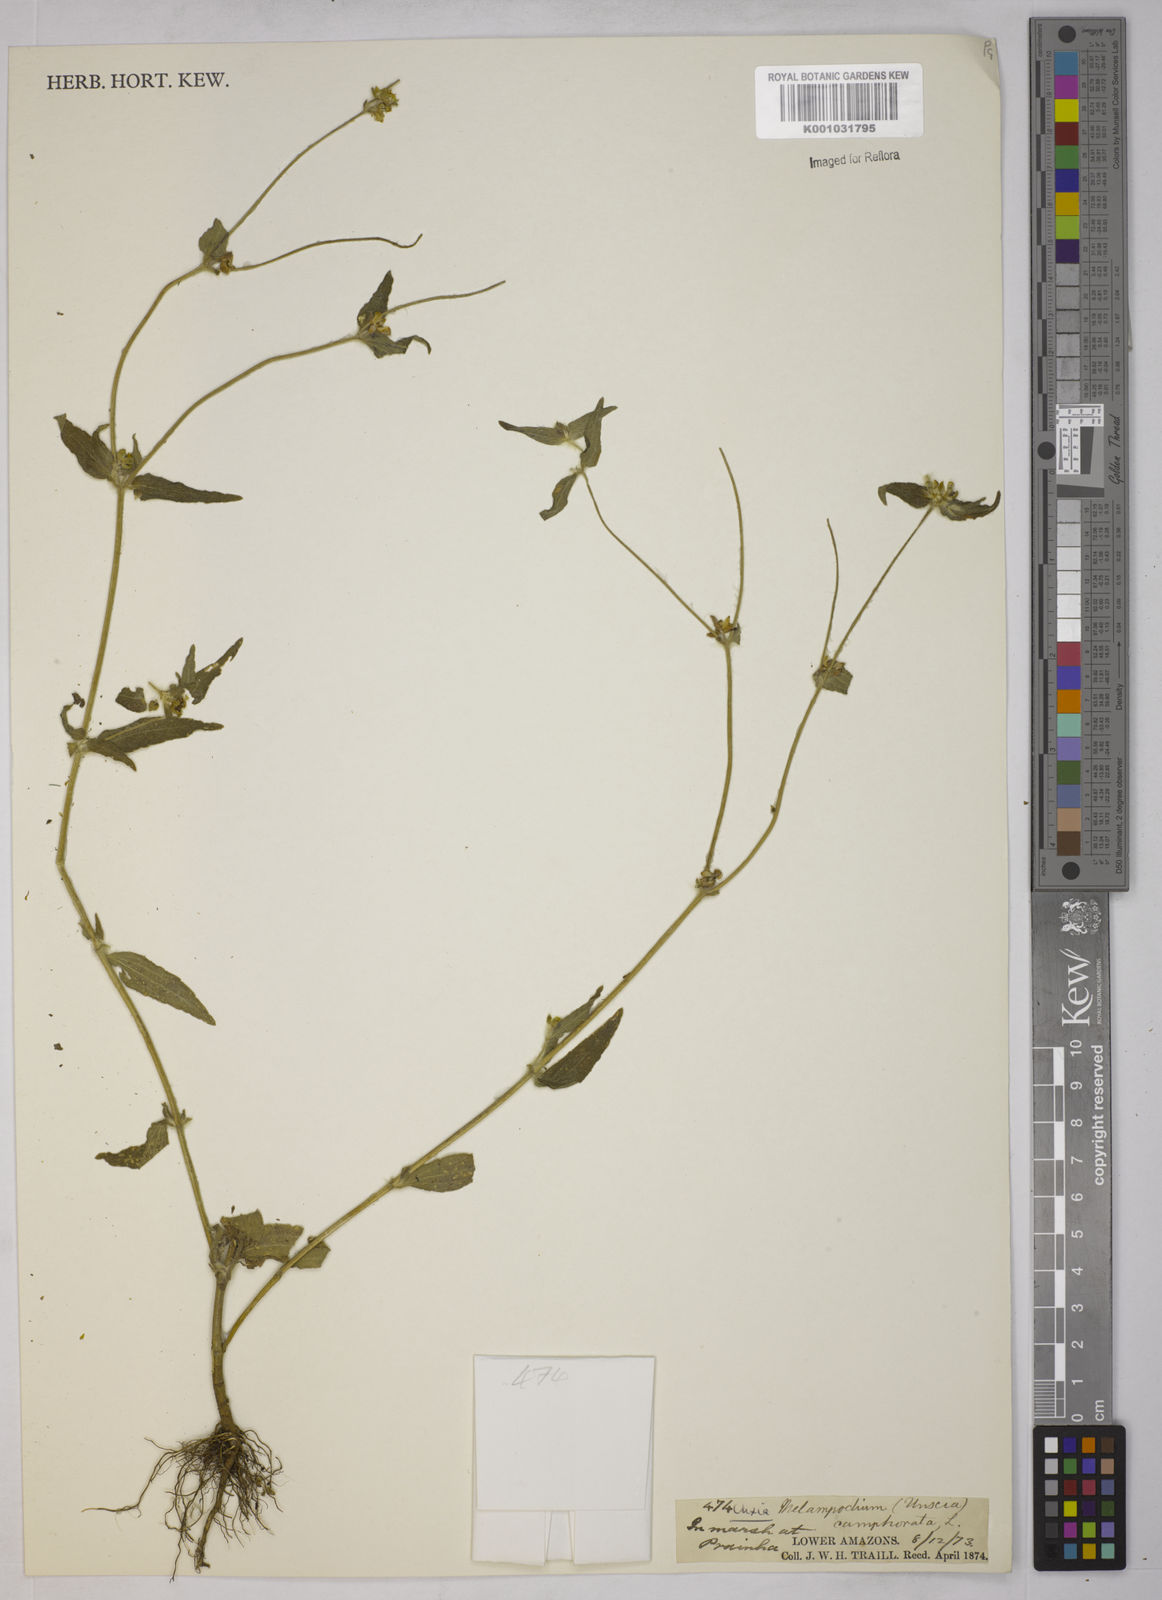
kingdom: Plantae
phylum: Tracheophyta
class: Magnoliopsida
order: Asterales
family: Asteraceae
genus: Unxia
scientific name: Unxia camphorata
